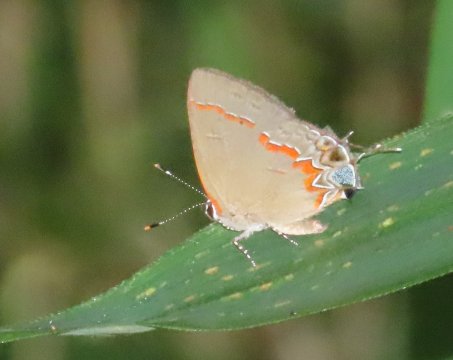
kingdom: Animalia
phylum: Arthropoda
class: Insecta
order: Lepidoptera
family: Lycaenidae
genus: Calycopis
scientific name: Calycopis cecrops
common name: Red-banded Hairstreak
